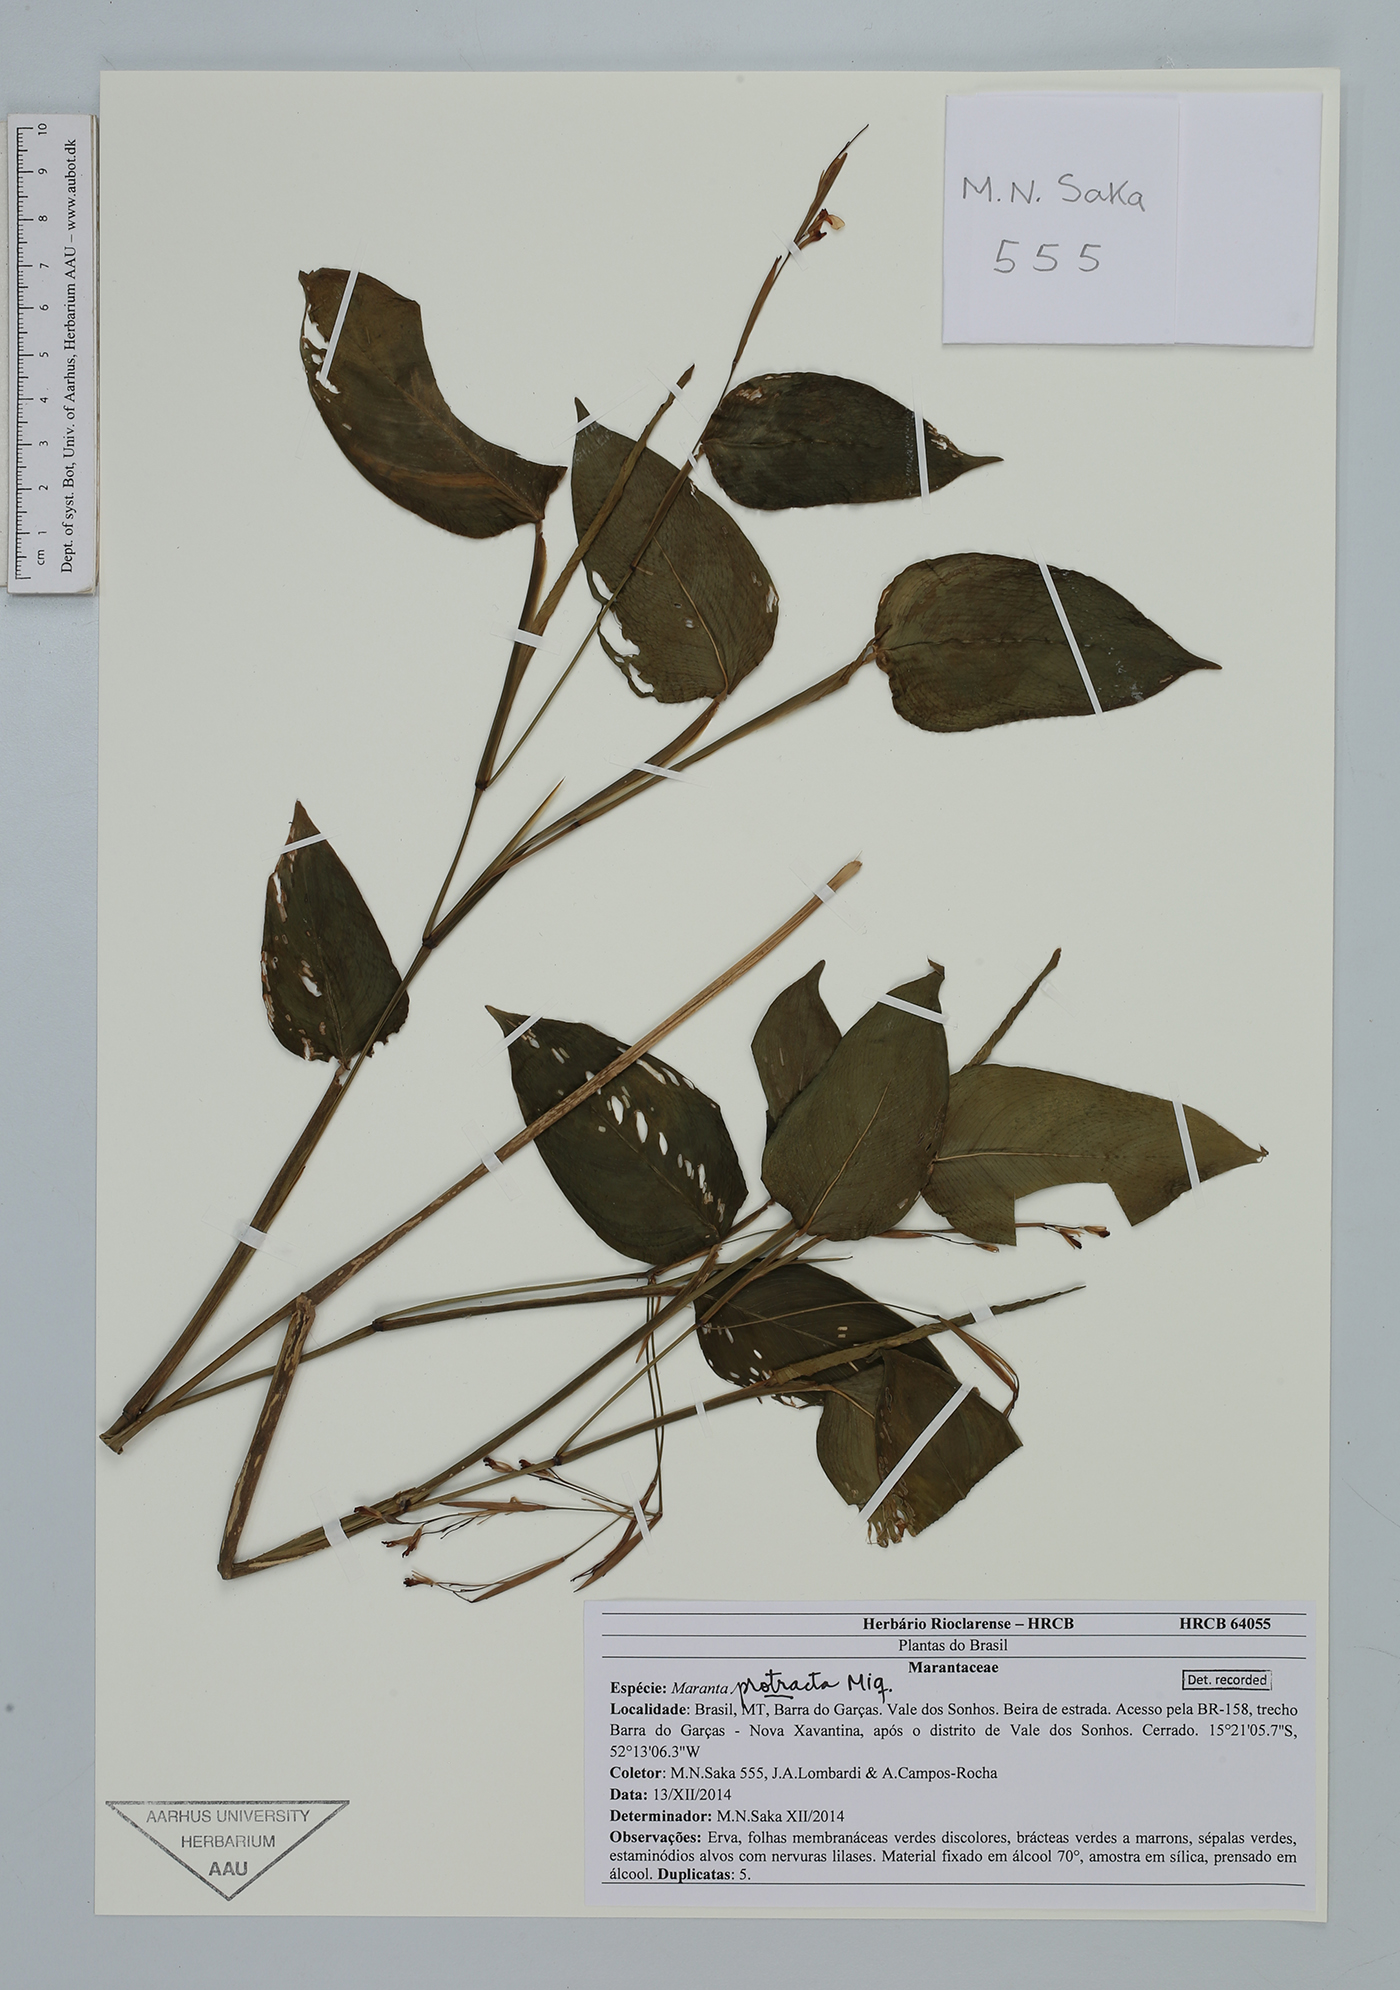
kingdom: Plantae
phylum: Tracheophyta
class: Liliopsida
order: Zingiberales
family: Marantaceae
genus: Maranta
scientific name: Maranta protracta
